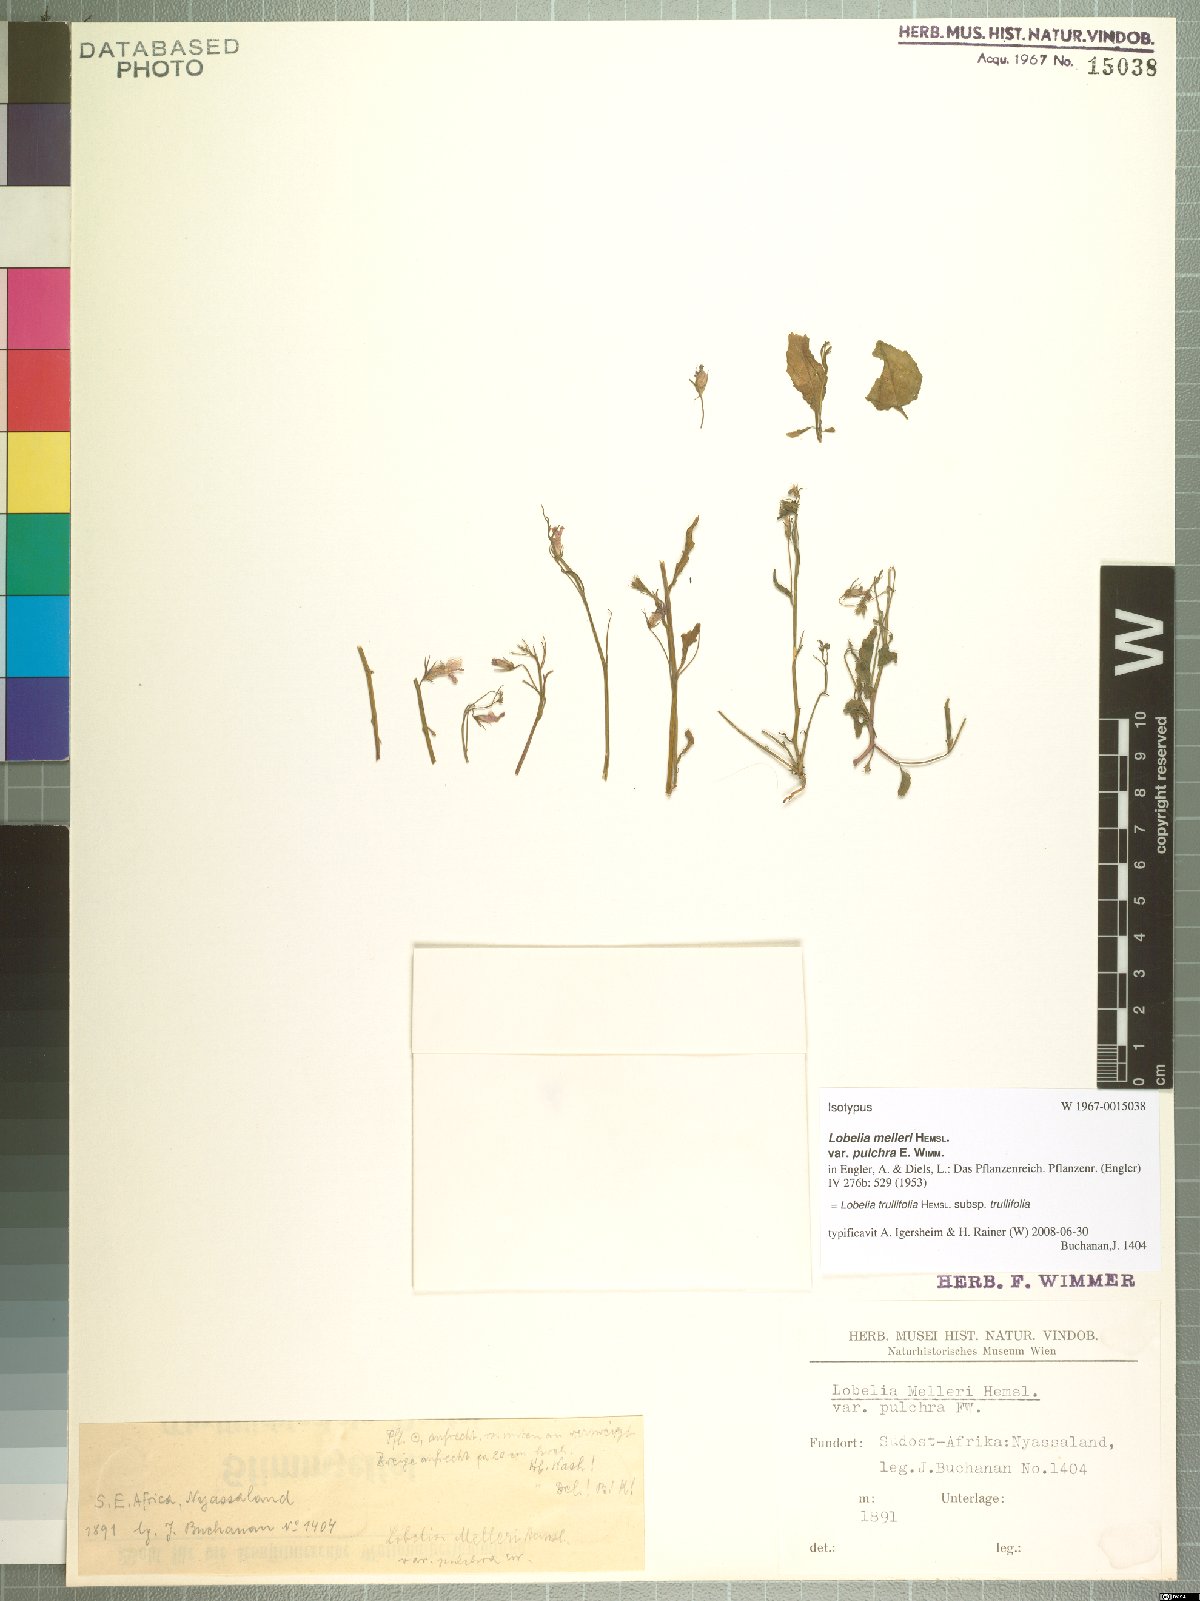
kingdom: Plantae
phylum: Tracheophyta
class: Magnoliopsida
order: Asterales
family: Campanulaceae
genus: Lobelia
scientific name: Lobelia trullifolia
